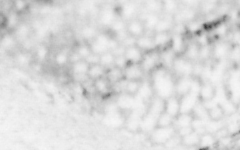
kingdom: Animalia
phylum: Chordata
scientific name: Chordata
